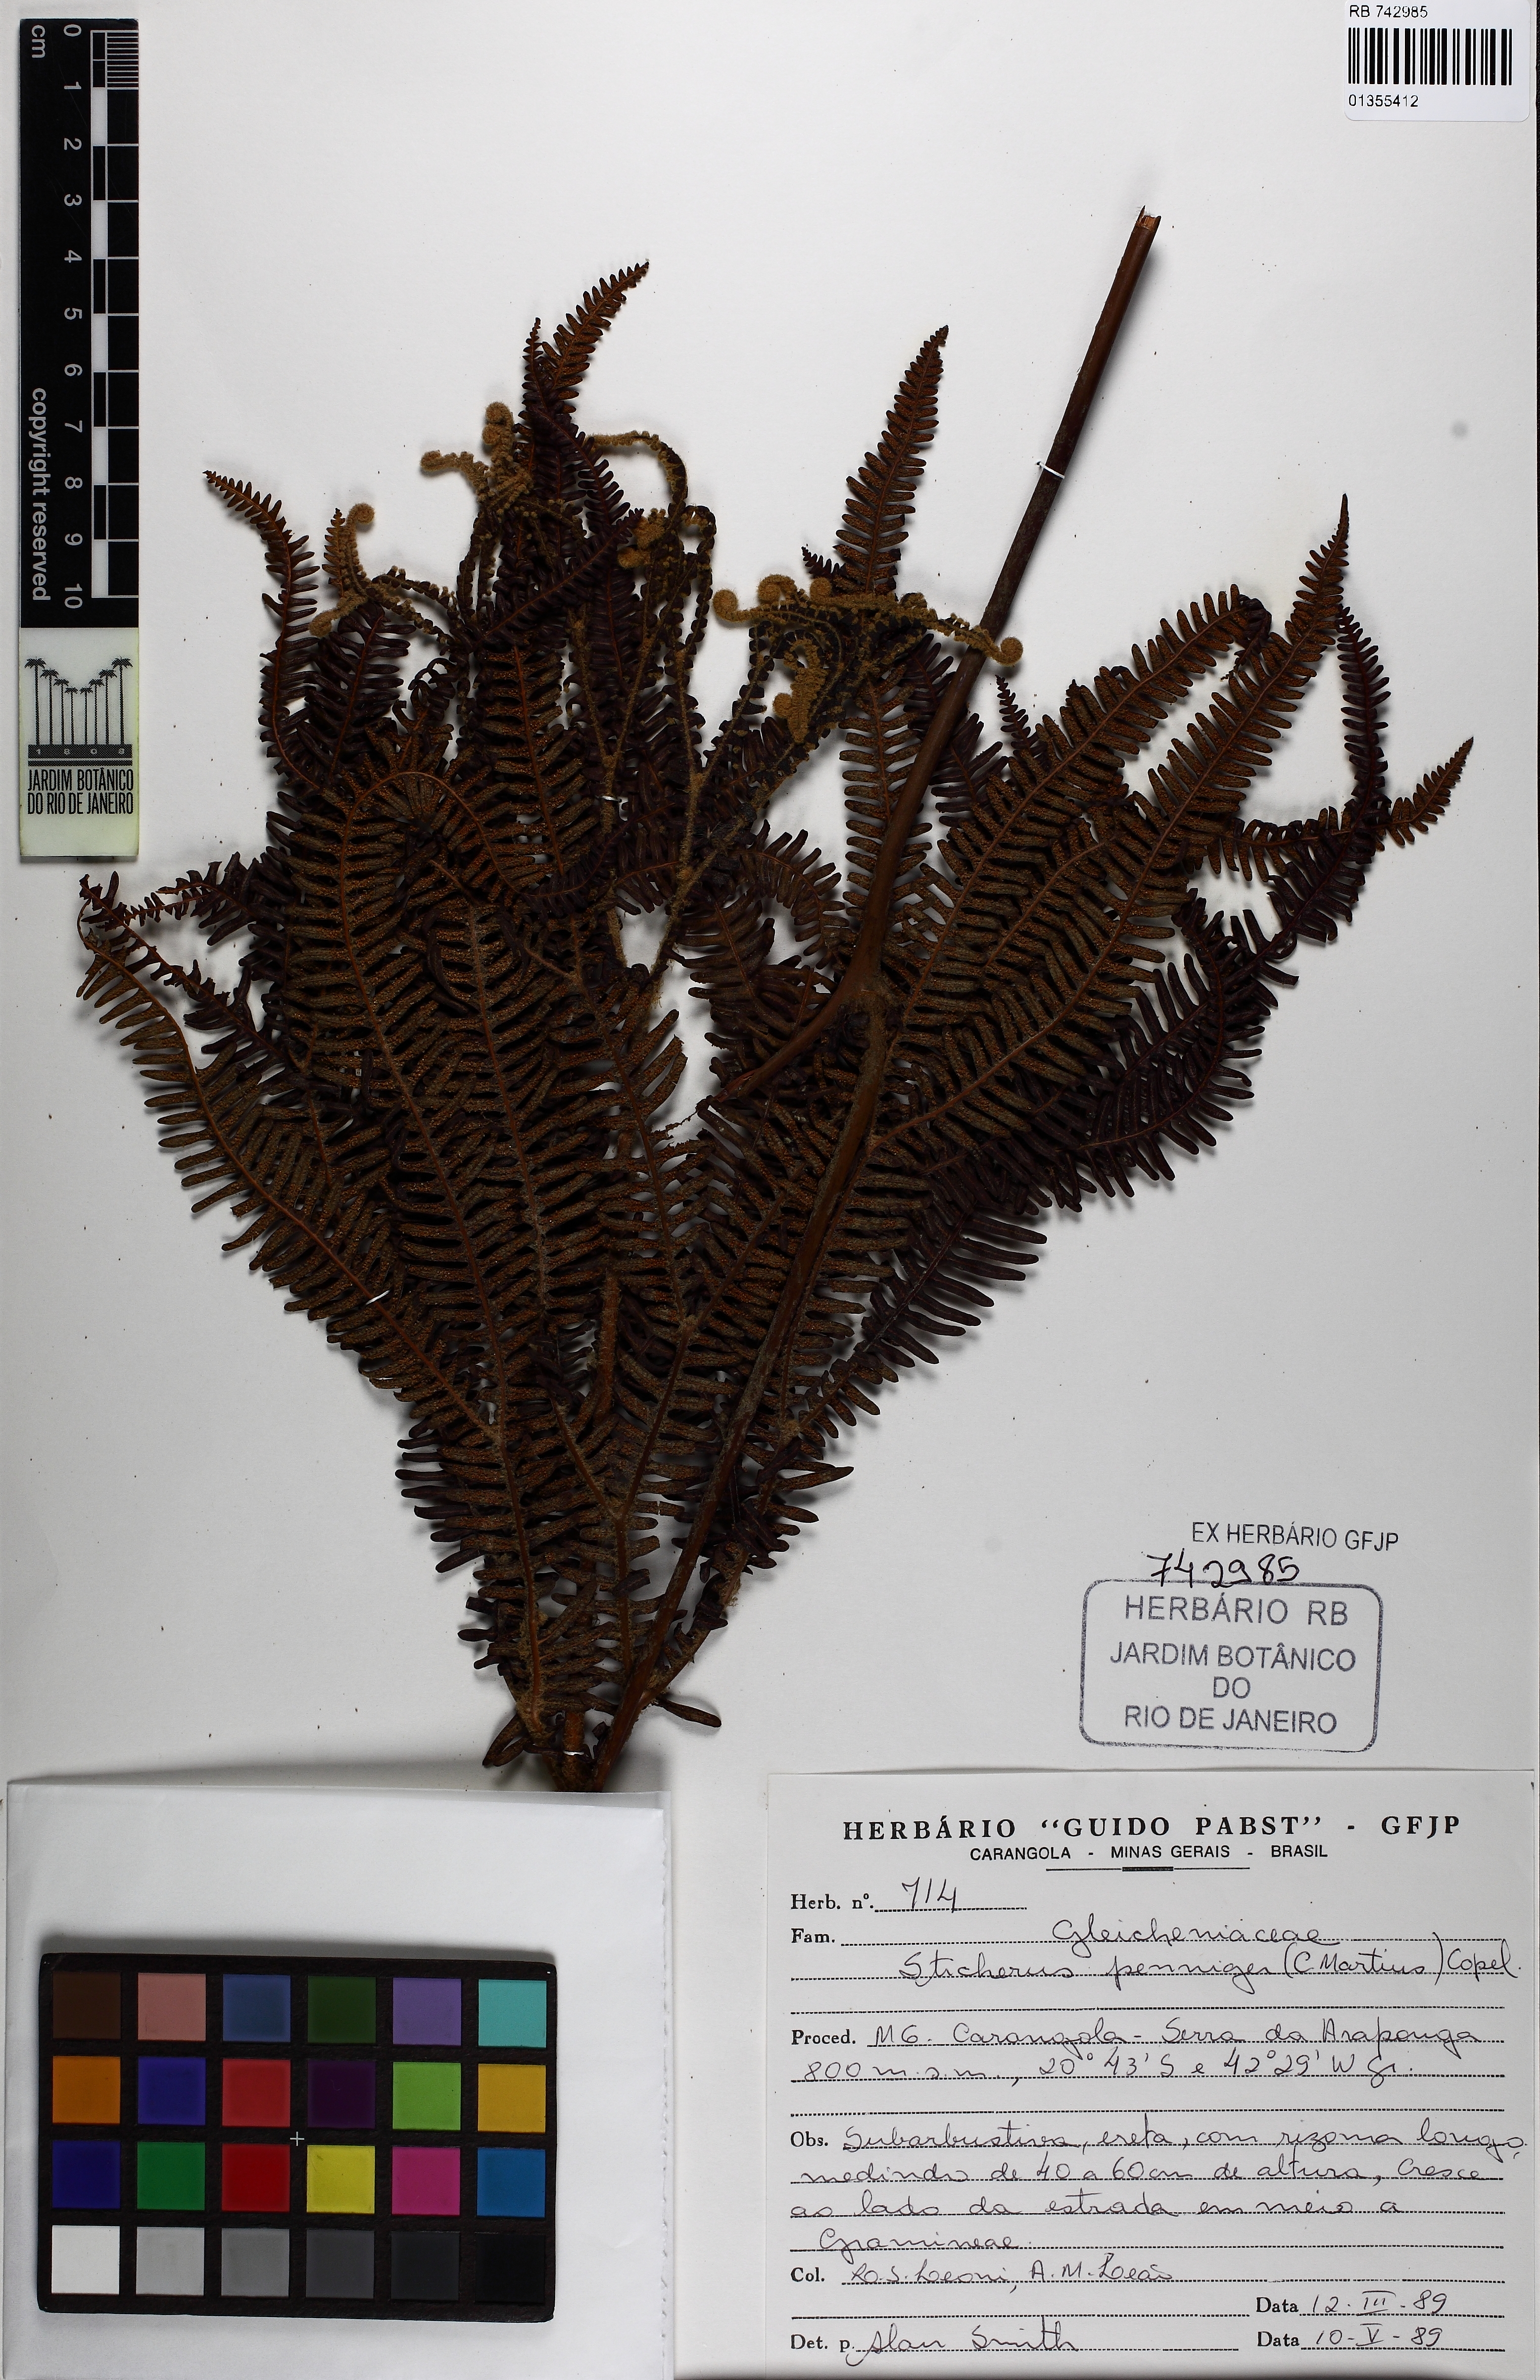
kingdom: Plantae
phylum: Tracheophyta
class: Polypodiopsida
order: Gleicheniales
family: Gleicheniaceae
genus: Sticherus
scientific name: Sticherus penniger
